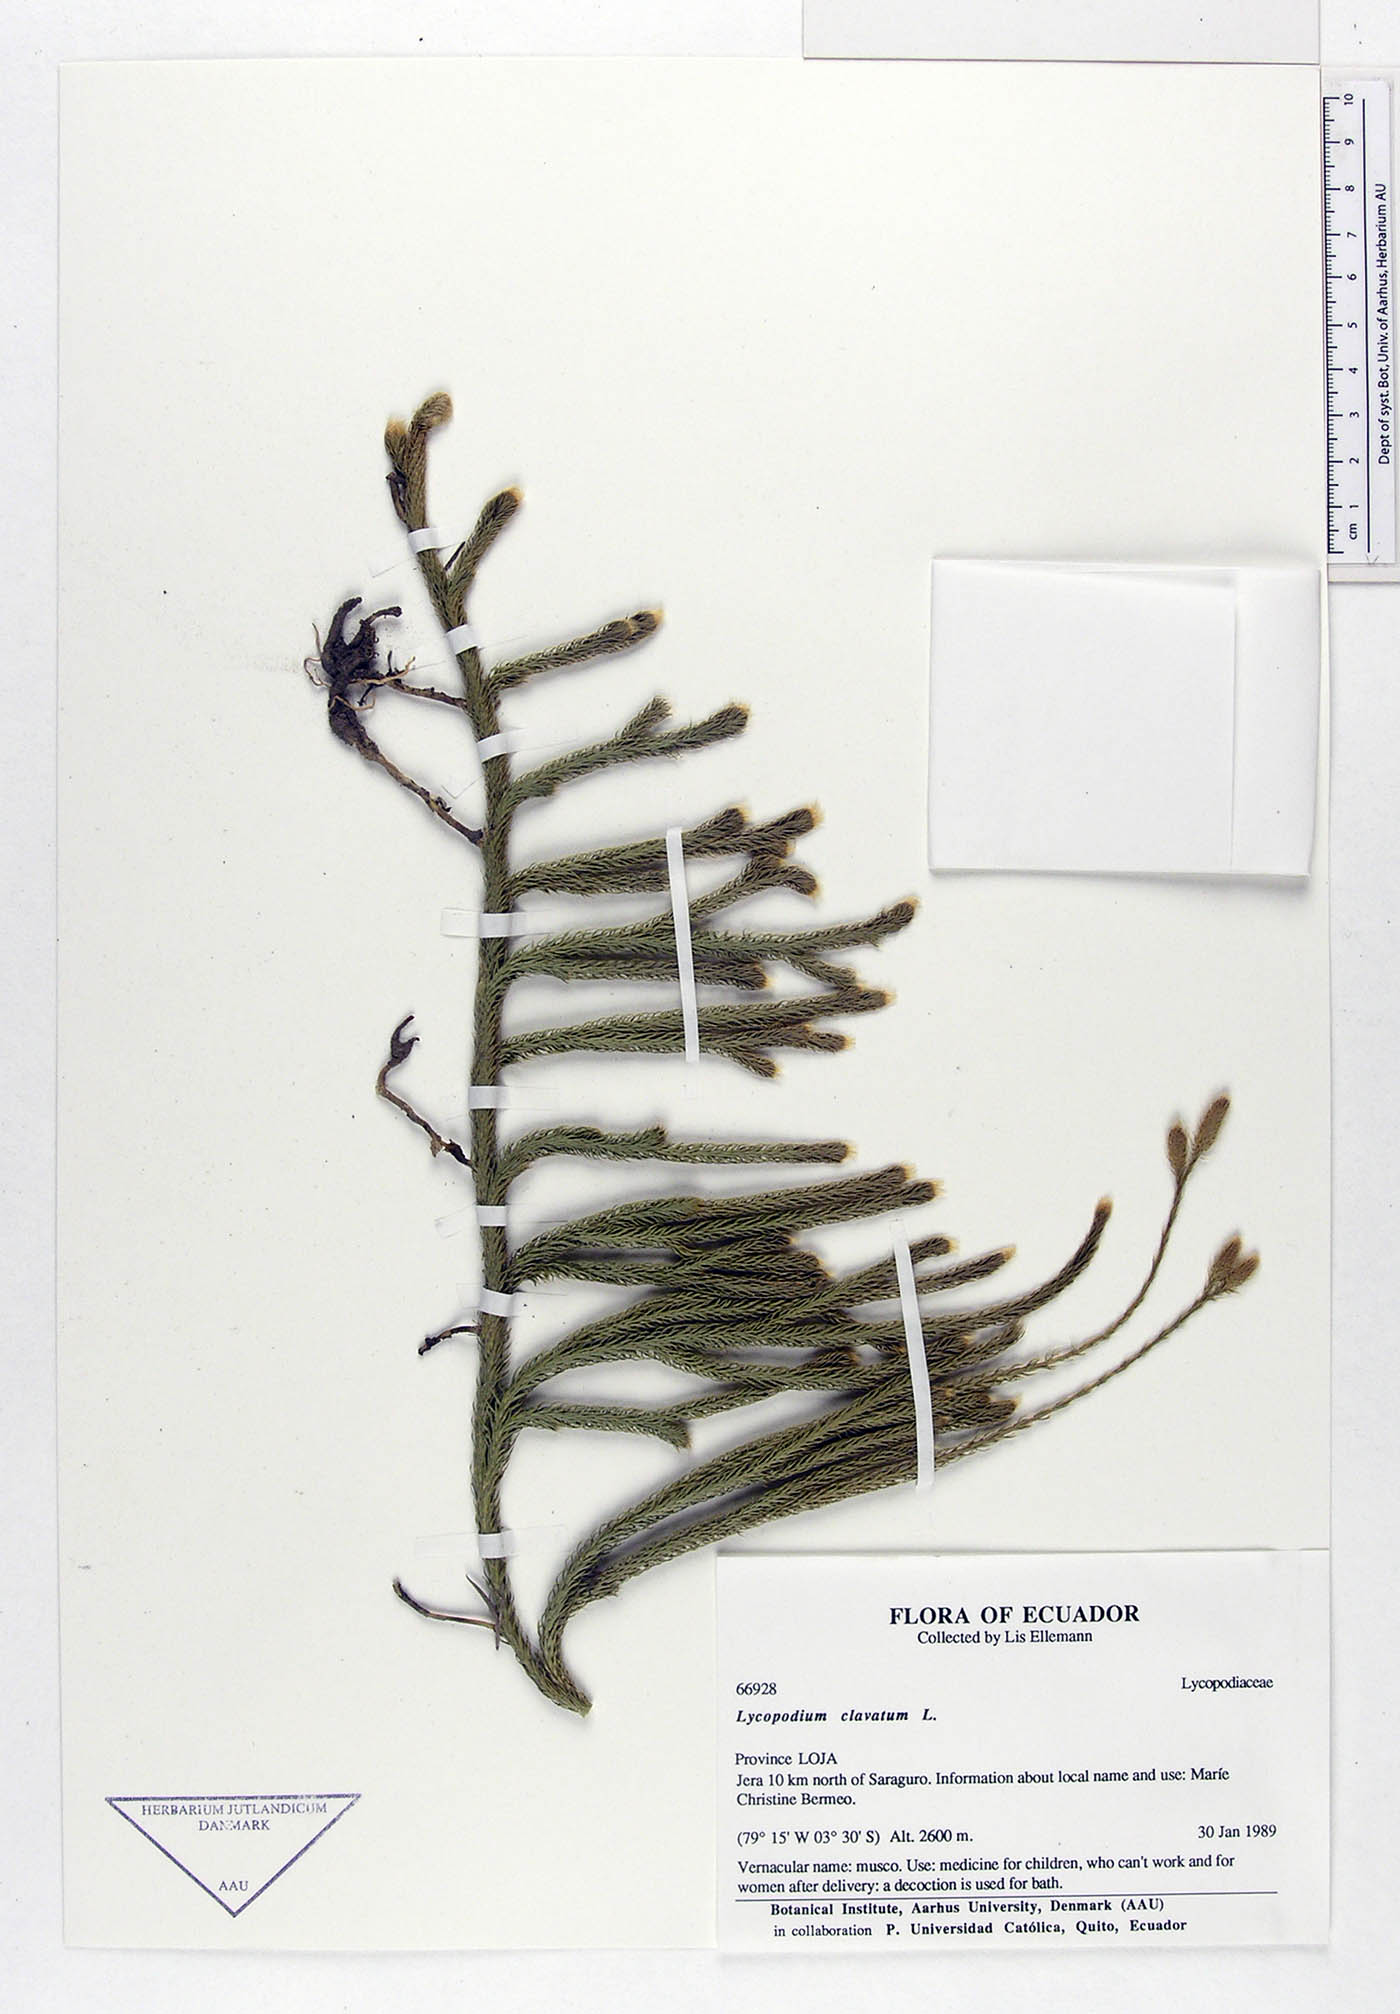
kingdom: Plantae
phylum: Tracheophyta
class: Lycopodiopsida
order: Lycopodiales
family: Lycopodiaceae
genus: Lycopodium
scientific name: Lycopodium clavatum
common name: Stag's-horn clubmoss
